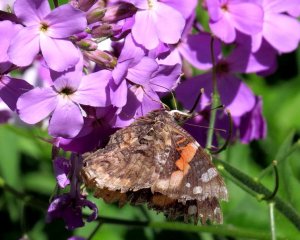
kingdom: Animalia
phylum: Arthropoda
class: Insecta
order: Lepidoptera
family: Nymphalidae
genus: Vanessa
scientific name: Vanessa atalanta
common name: Red Admiral
